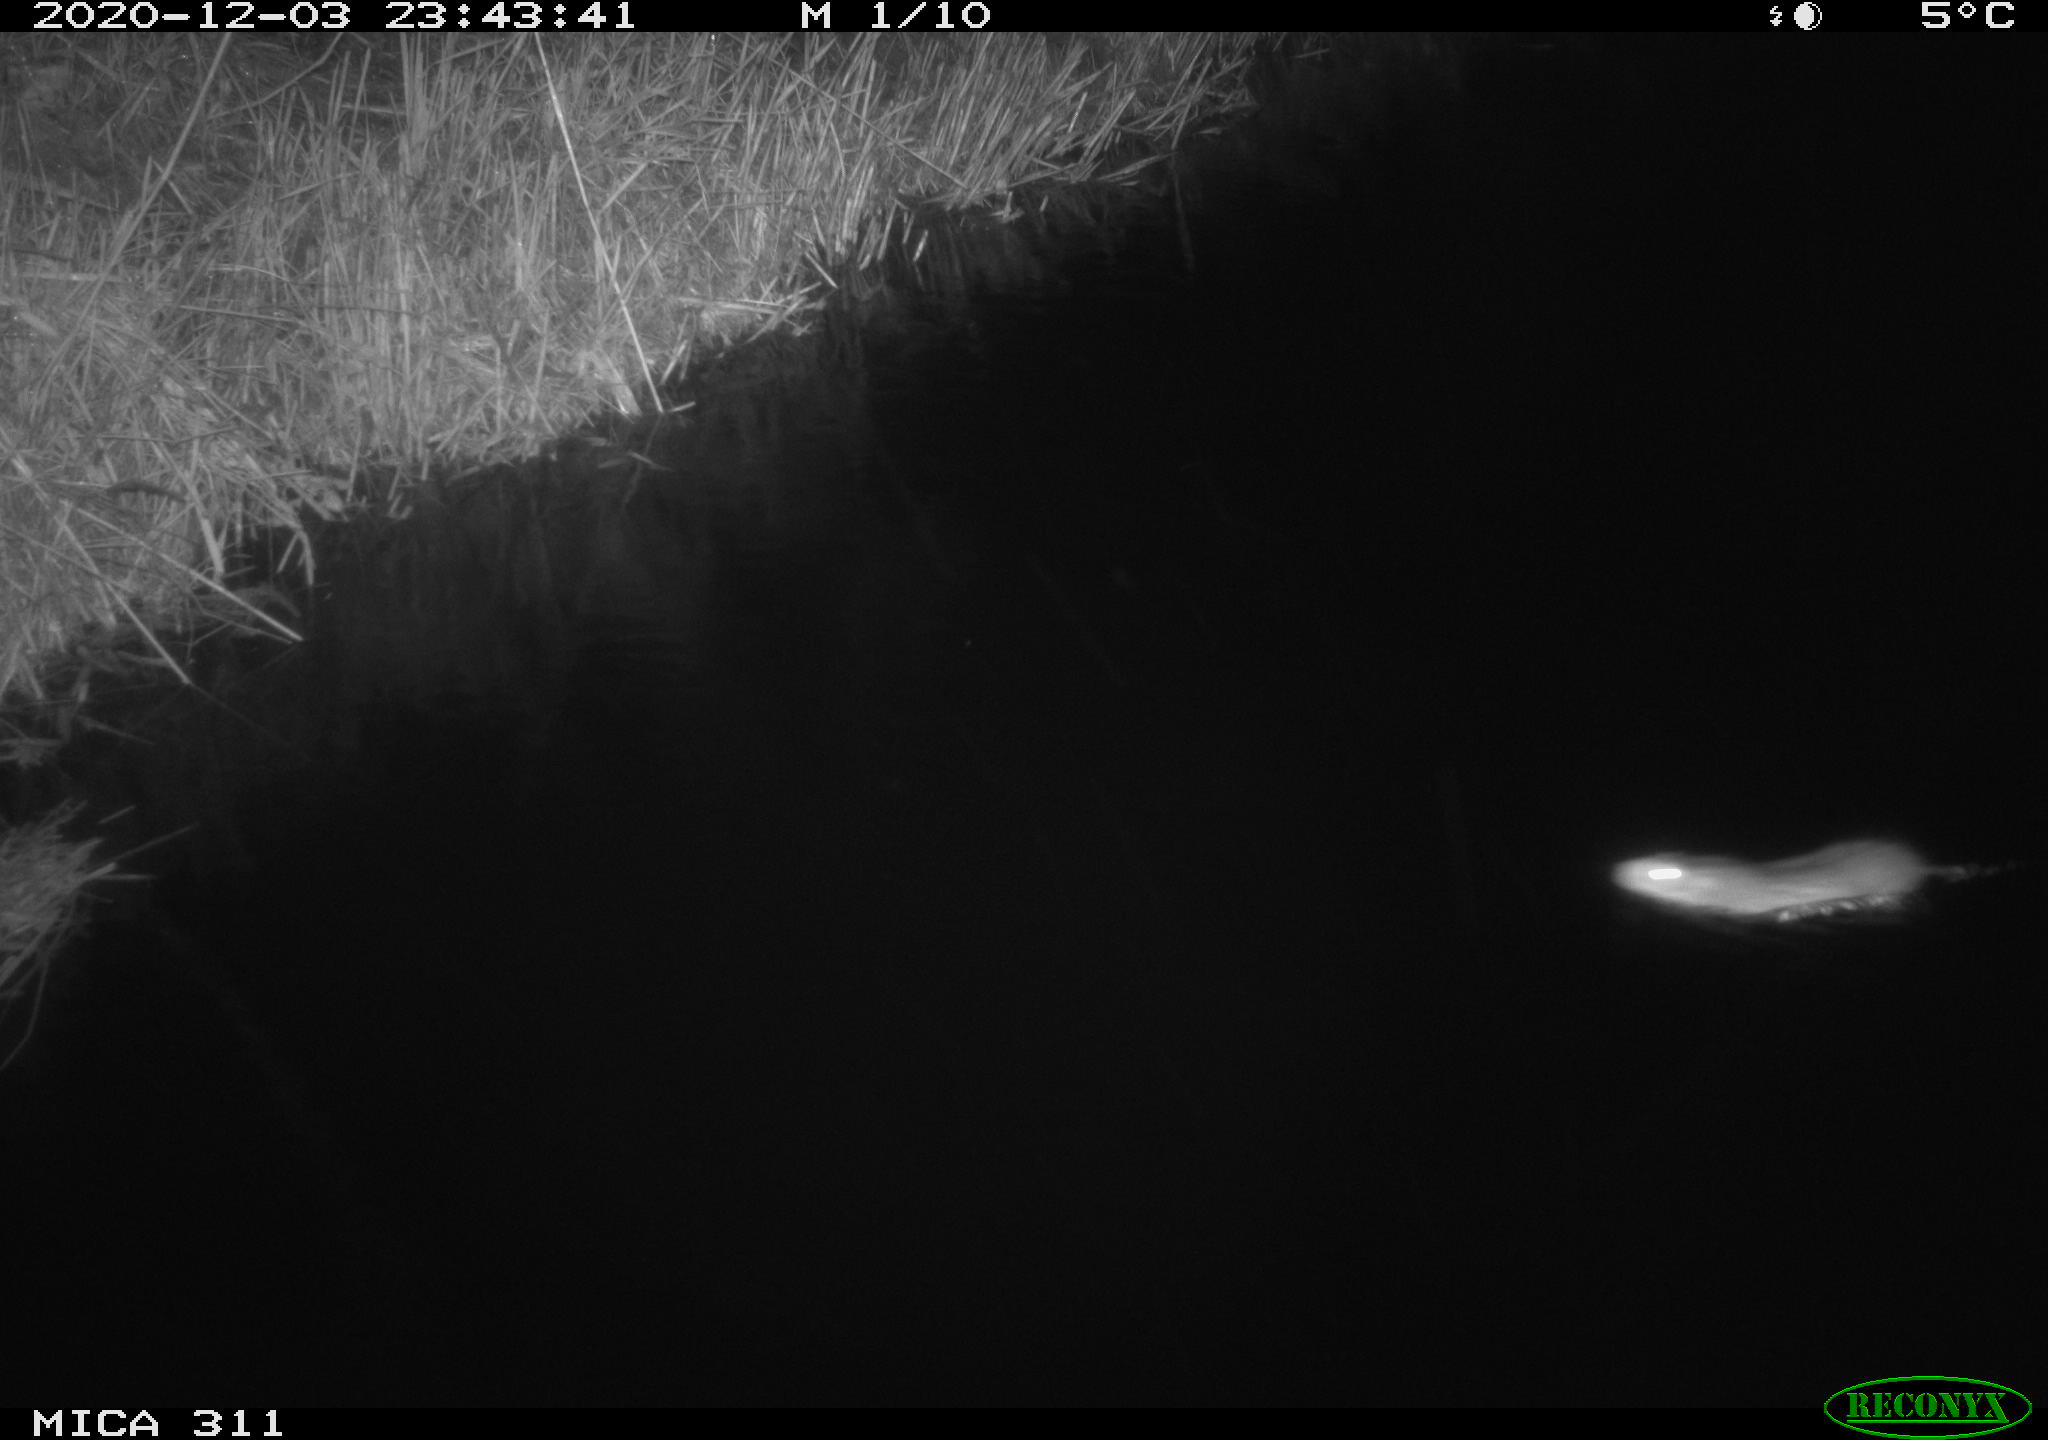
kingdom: Animalia
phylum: Chordata
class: Mammalia
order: Rodentia
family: Muridae
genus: Rattus
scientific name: Rattus norvegicus
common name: Brown rat
